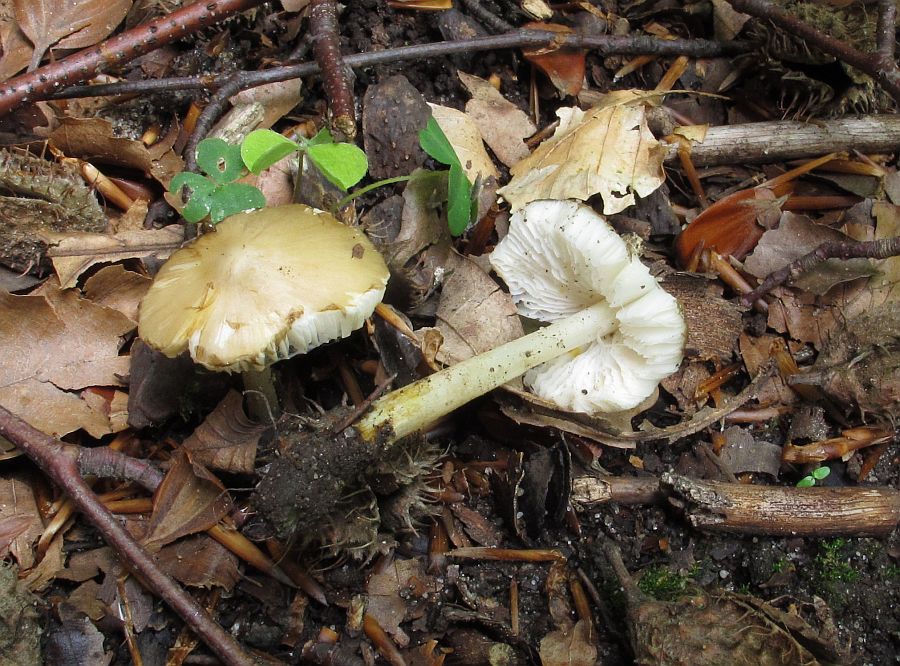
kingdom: Fungi
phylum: Basidiomycota
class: Agaricomycetes
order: Agaricales
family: Porotheleaceae
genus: Hydropodia
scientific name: Hydropodia subalpina
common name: vår-fnugfod
